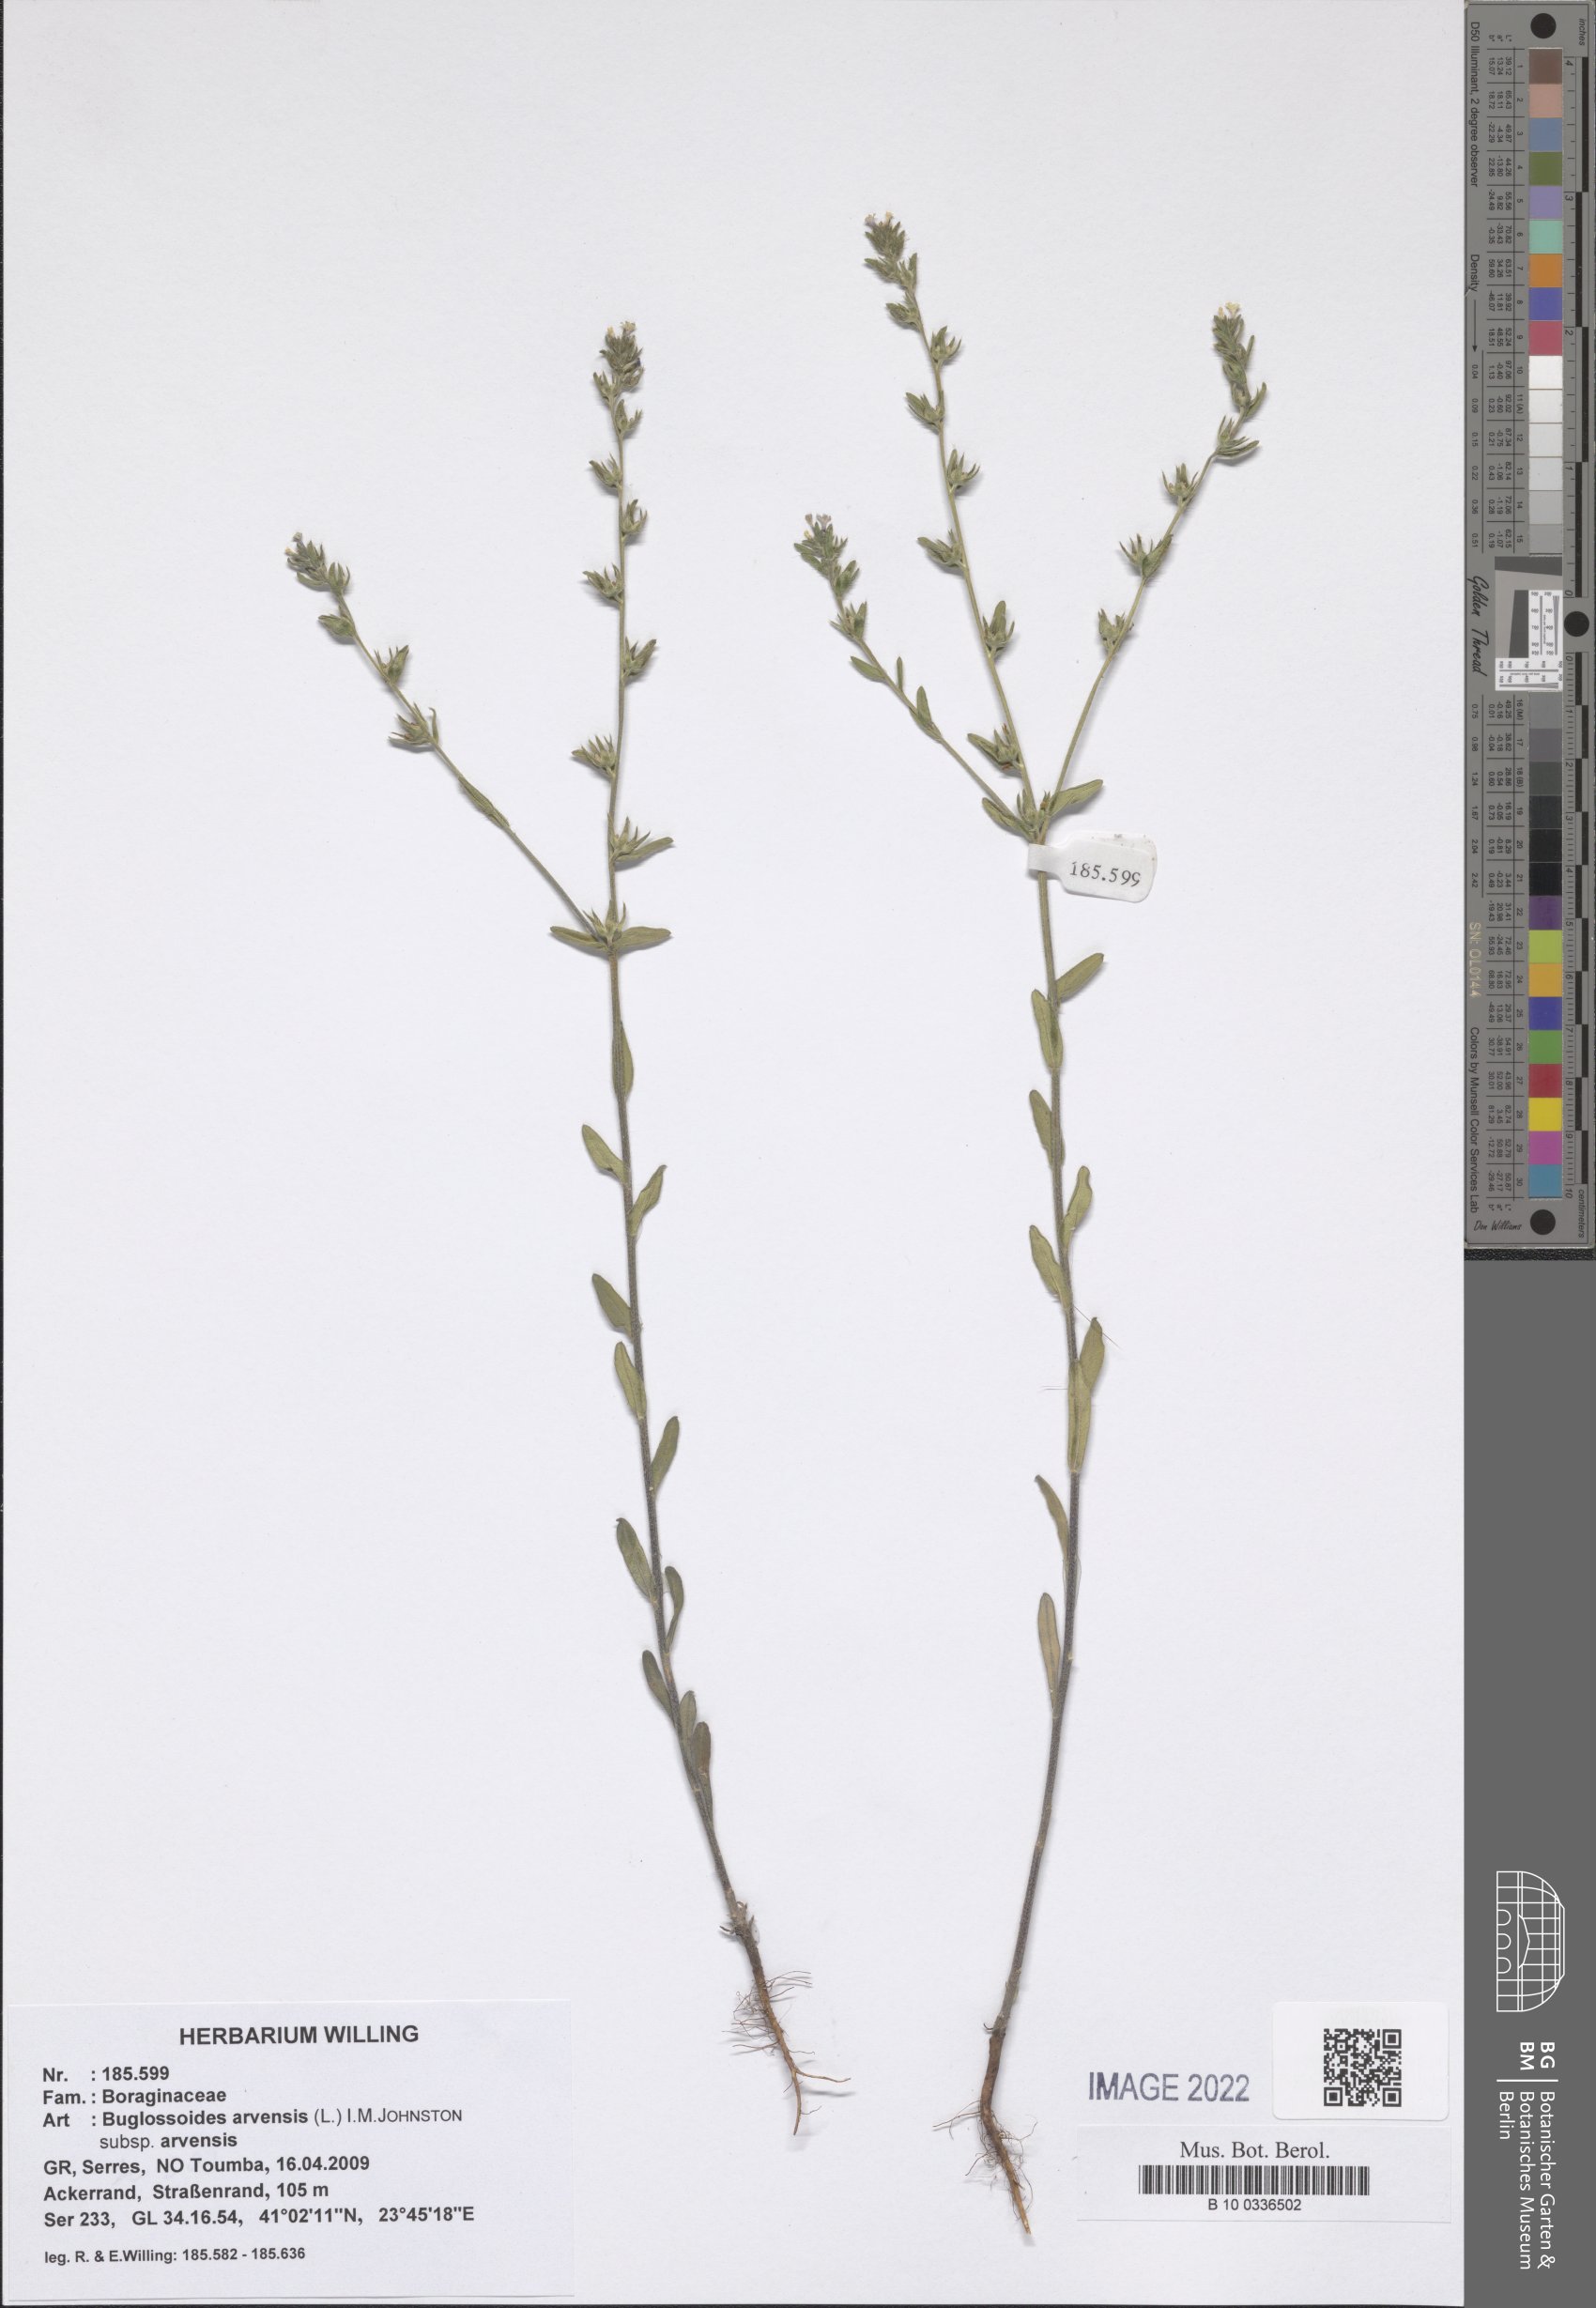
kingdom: Plantae
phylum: Tracheophyta
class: Magnoliopsida
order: Boraginales
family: Boraginaceae
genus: Buglossoides
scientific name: Buglossoides arvensis
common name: Corn gromwell
